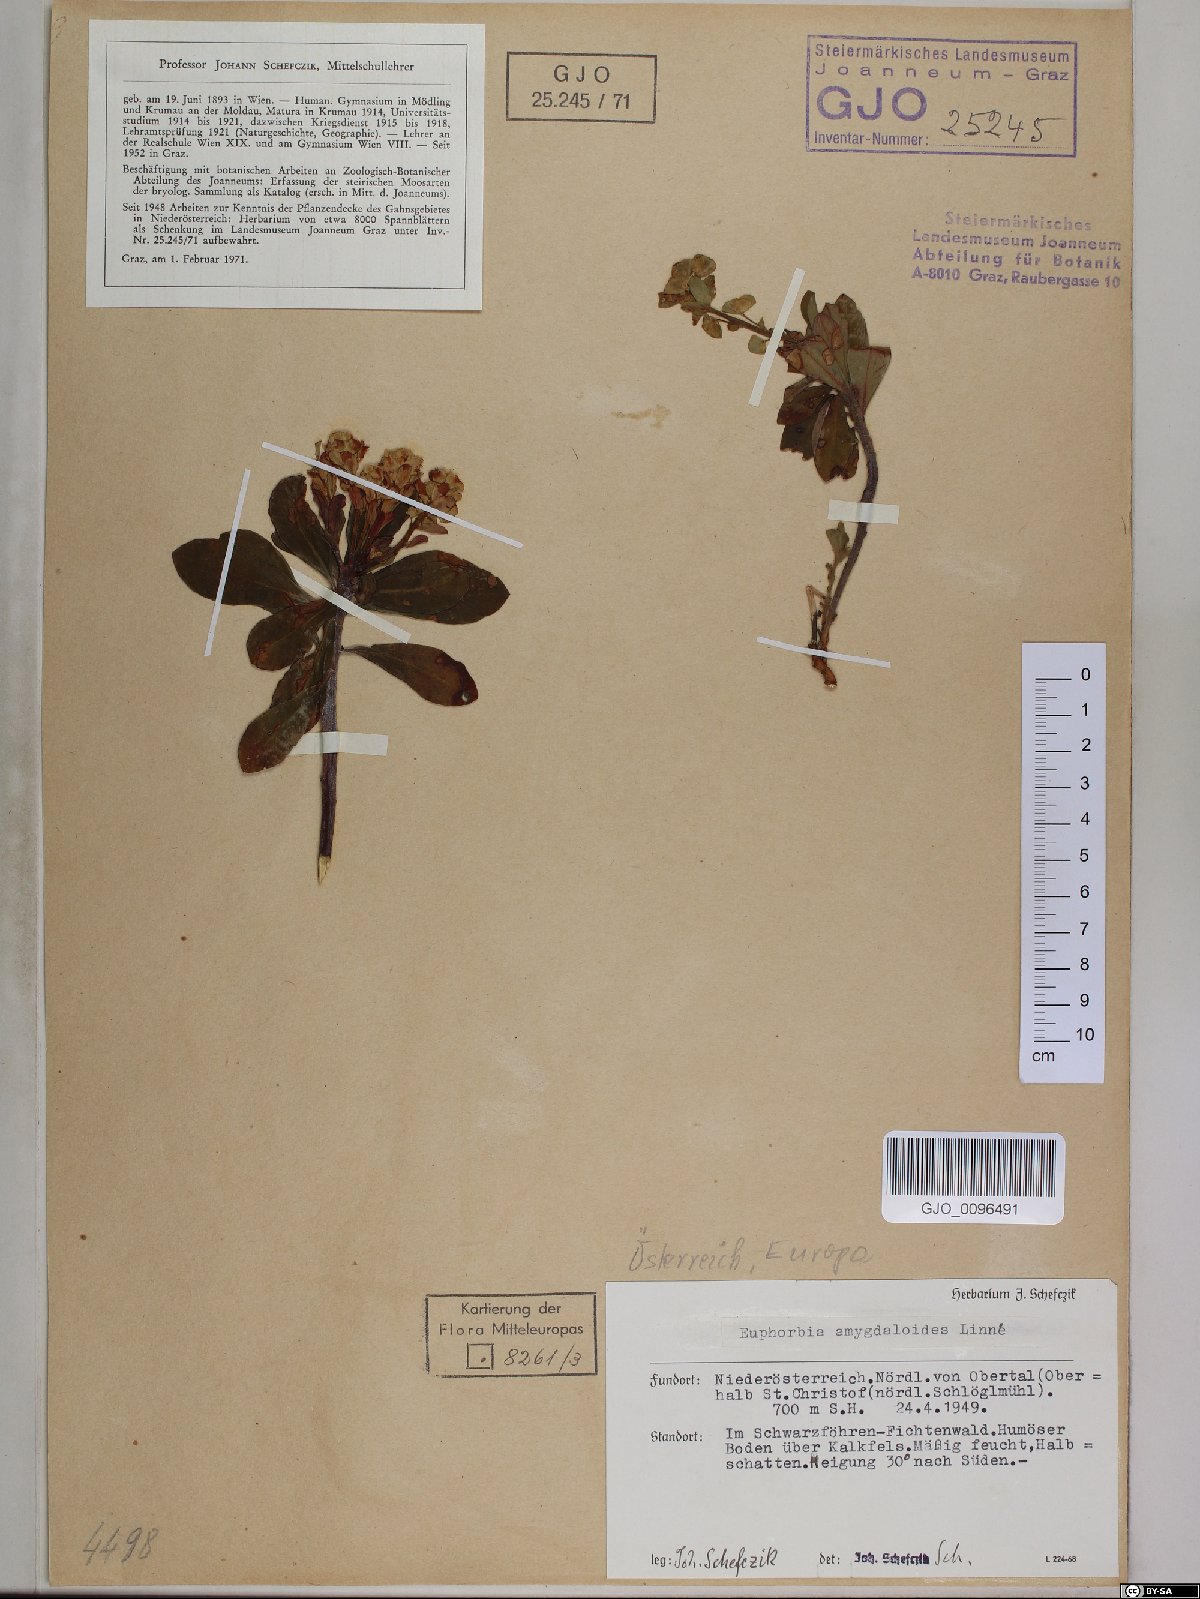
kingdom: Plantae
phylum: Tracheophyta
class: Magnoliopsida
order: Malpighiales
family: Euphorbiaceae
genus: Euphorbia
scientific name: Euphorbia amygdaloides
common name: Wood spurge
